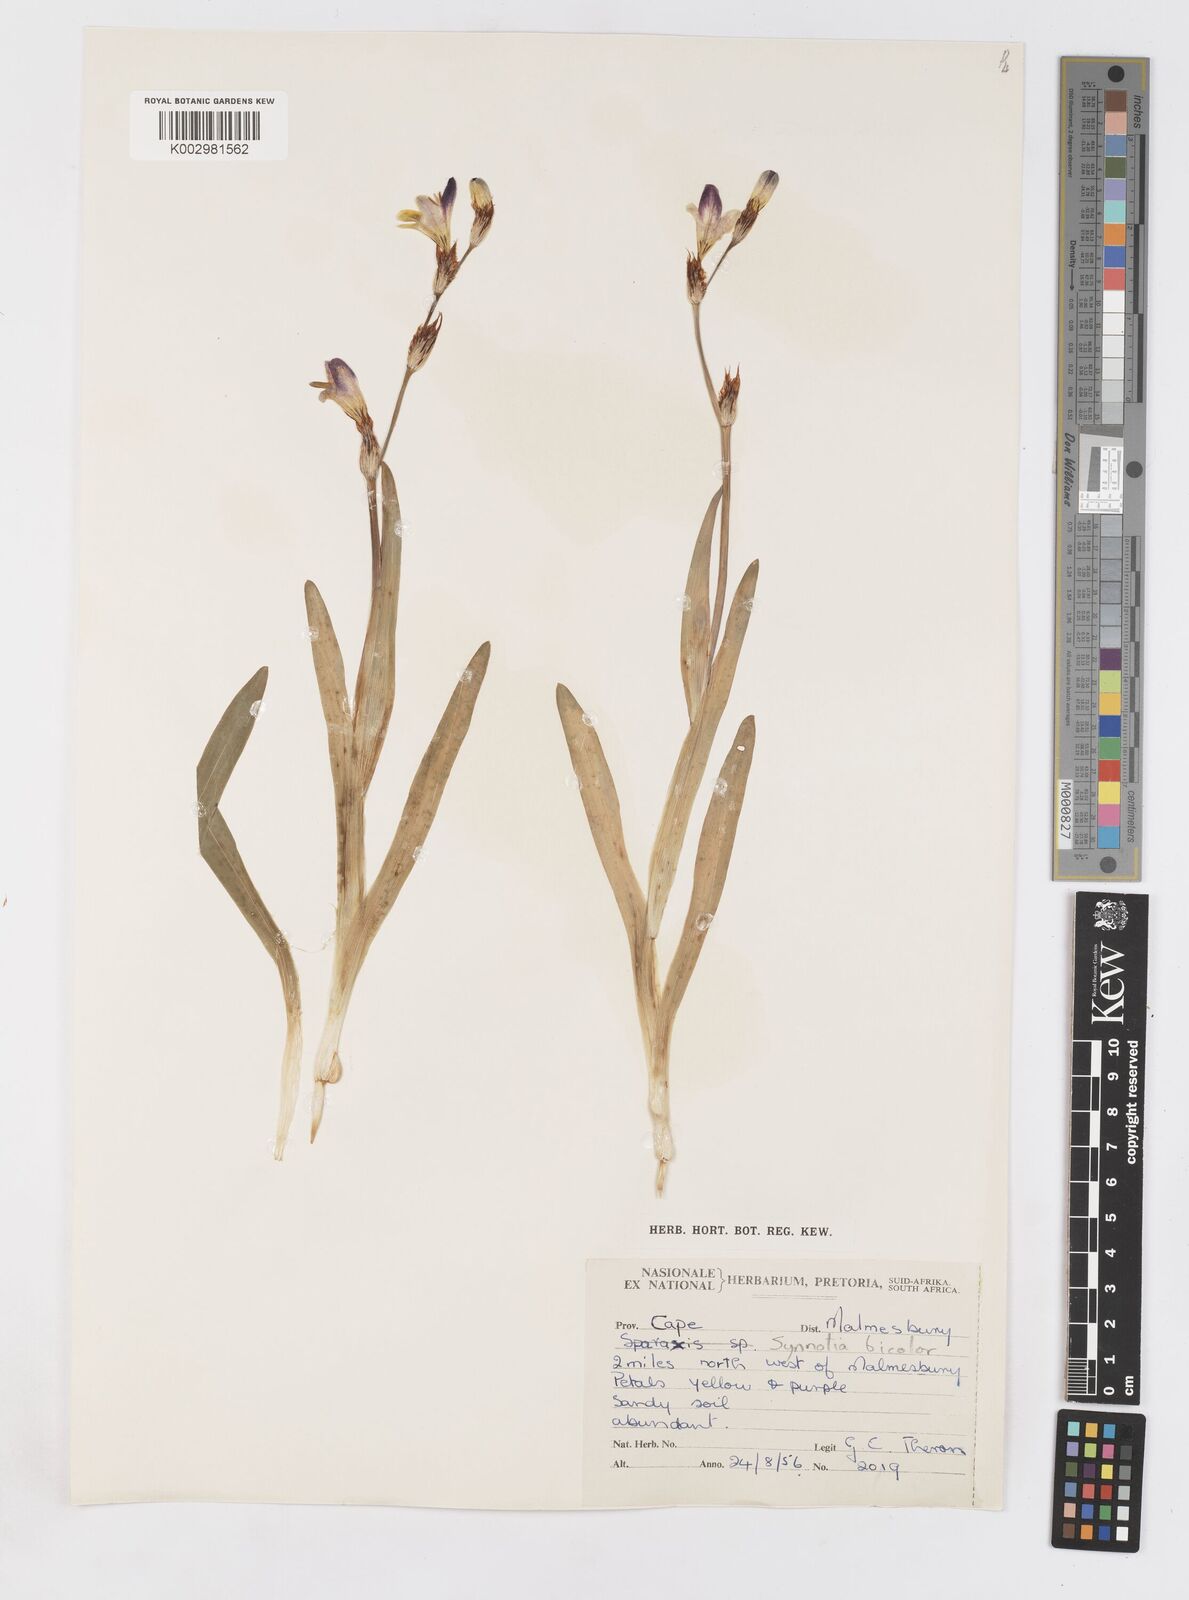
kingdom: Plantae
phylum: Tracheophyta
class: Liliopsida
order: Asparagales
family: Iridaceae
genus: Sparaxis
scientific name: Sparaxis
